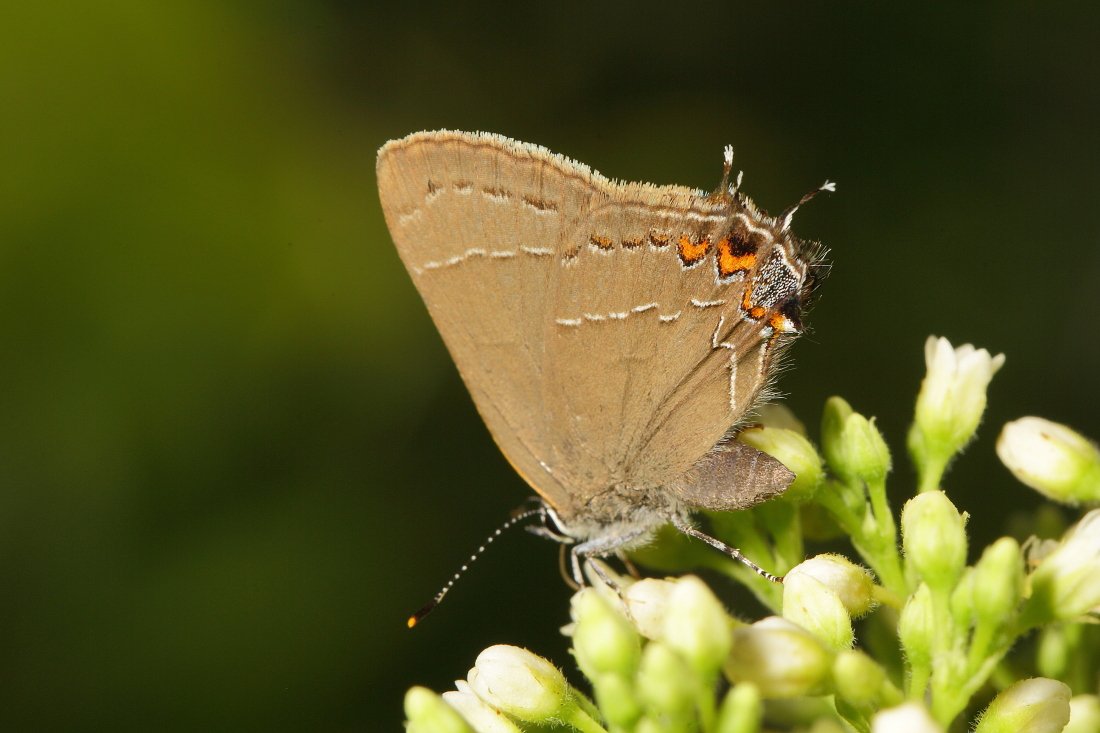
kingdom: Animalia
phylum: Arthropoda
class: Insecta
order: Lepidoptera
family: Lycaenidae
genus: Fixsenia
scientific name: Fixsenia favonius
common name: Oak Hairstreak
